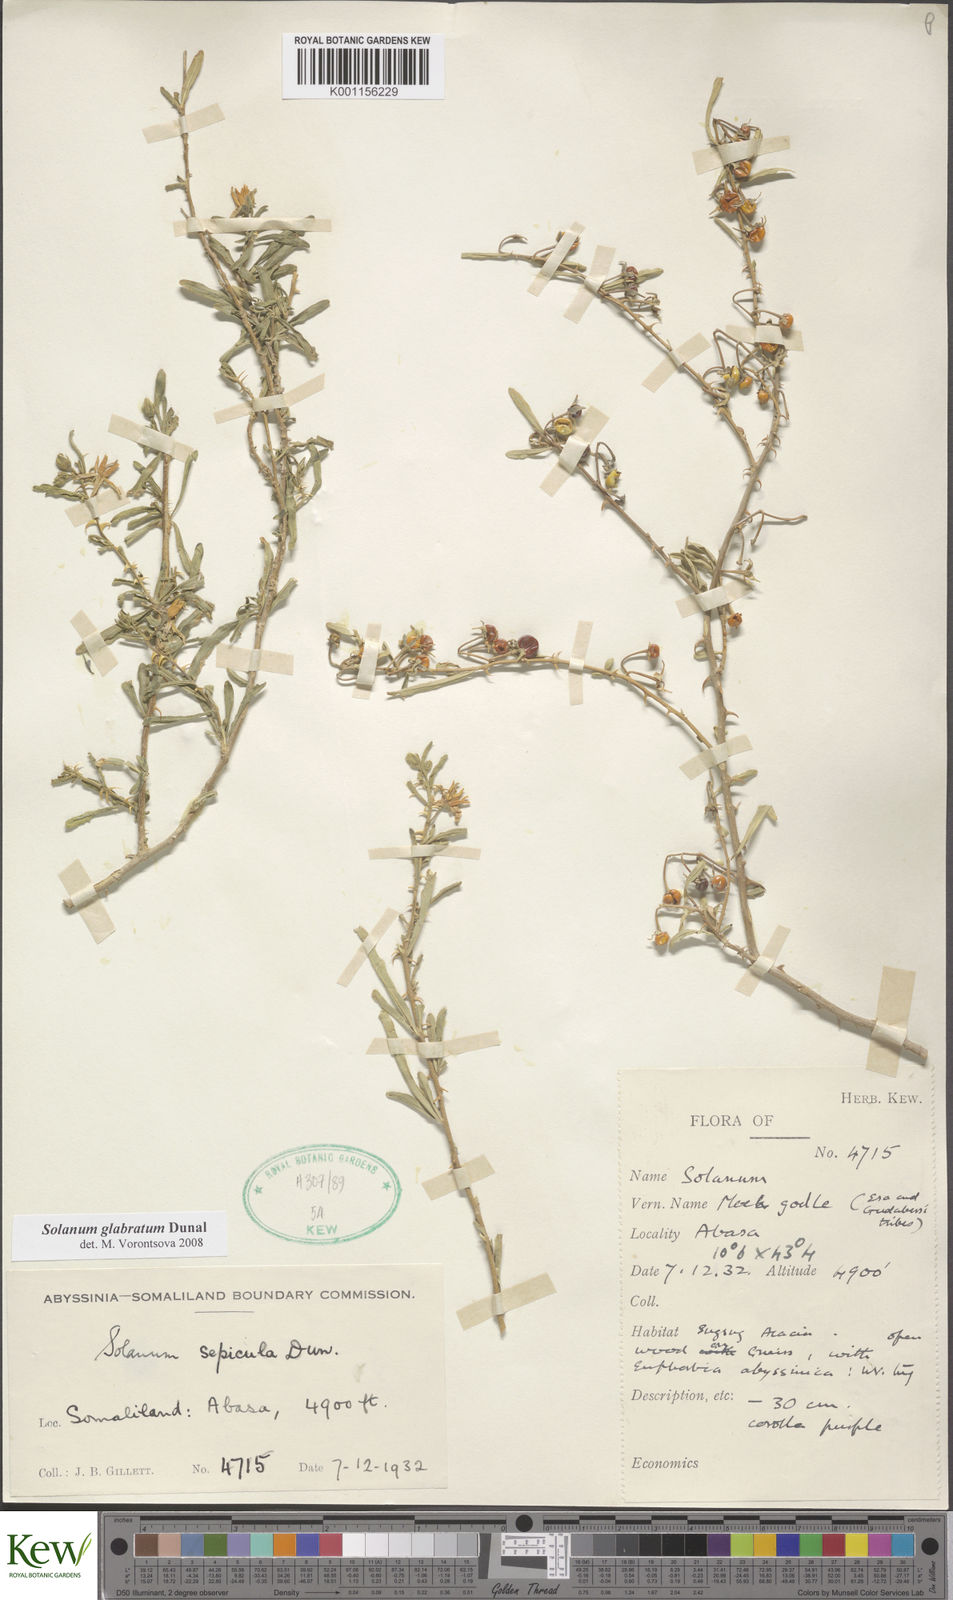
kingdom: Plantae
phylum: Tracheophyta
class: Magnoliopsida
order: Solanales
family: Solanaceae
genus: Solanum
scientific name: Solanum glabratum
